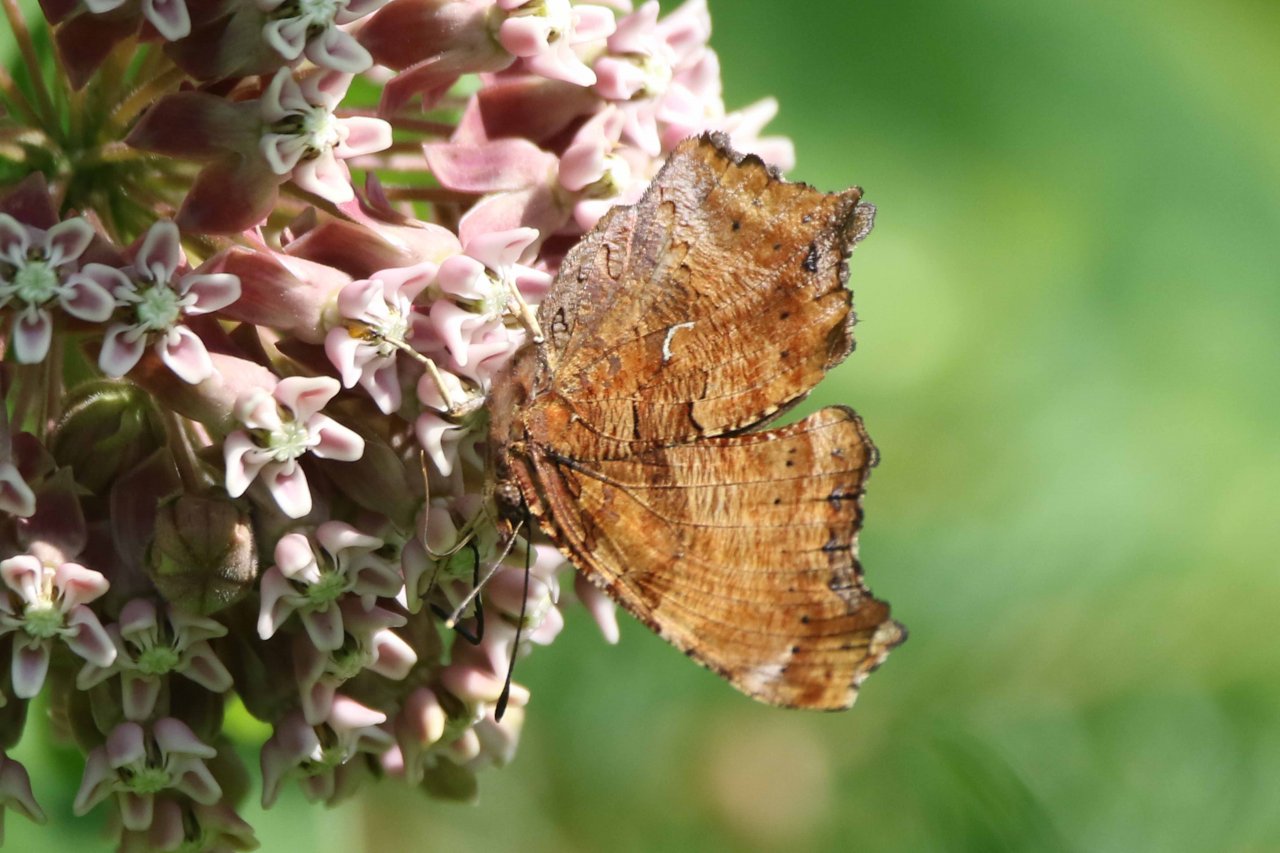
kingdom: Animalia
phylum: Arthropoda
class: Insecta
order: Lepidoptera
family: Nymphalidae
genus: Polygonia
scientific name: Polygonia comma
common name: Eastern Comma
